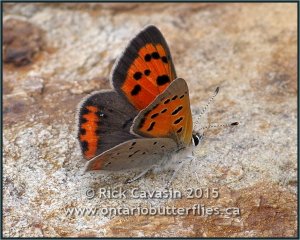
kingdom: Animalia
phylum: Arthropoda
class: Insecta
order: Lepidoptera
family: Lycaenidae
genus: Lycaena
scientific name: Lycaena phlaeas
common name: American Copper
